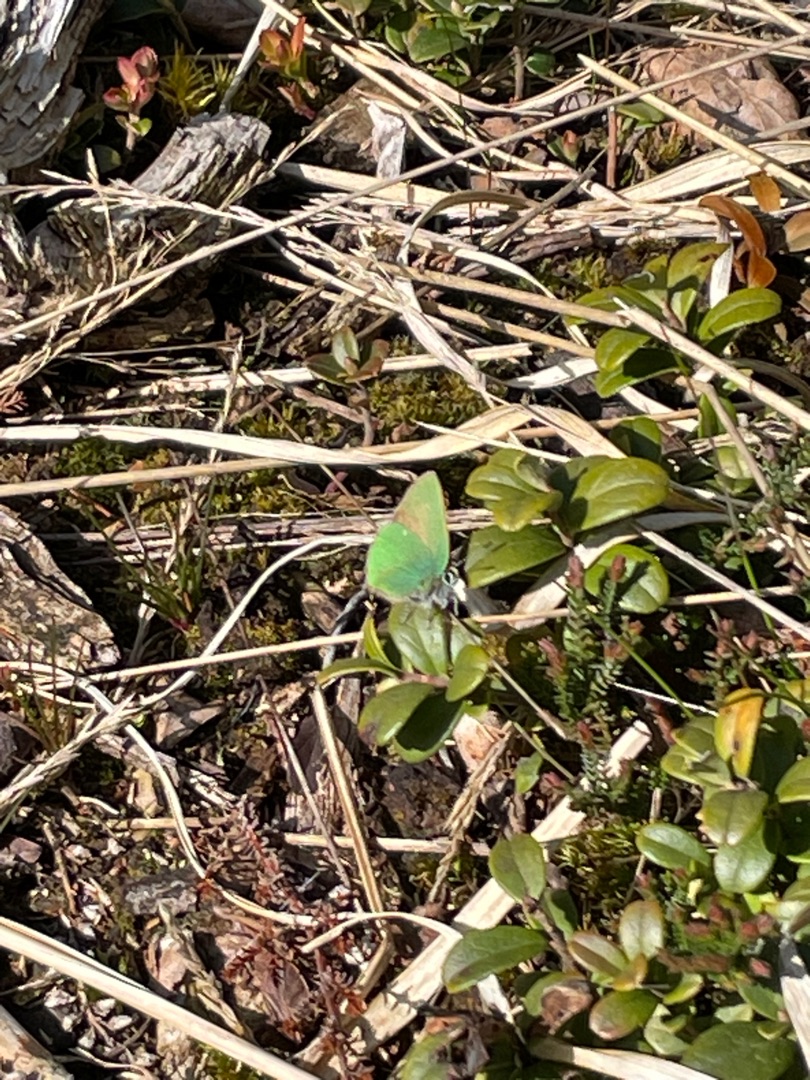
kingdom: Animalia
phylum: Arthropoda
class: Insecta
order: Lepidoptera
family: Lycaenidae
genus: Callophrys
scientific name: Callophrys rubi
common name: Grøn busksommerfugl
